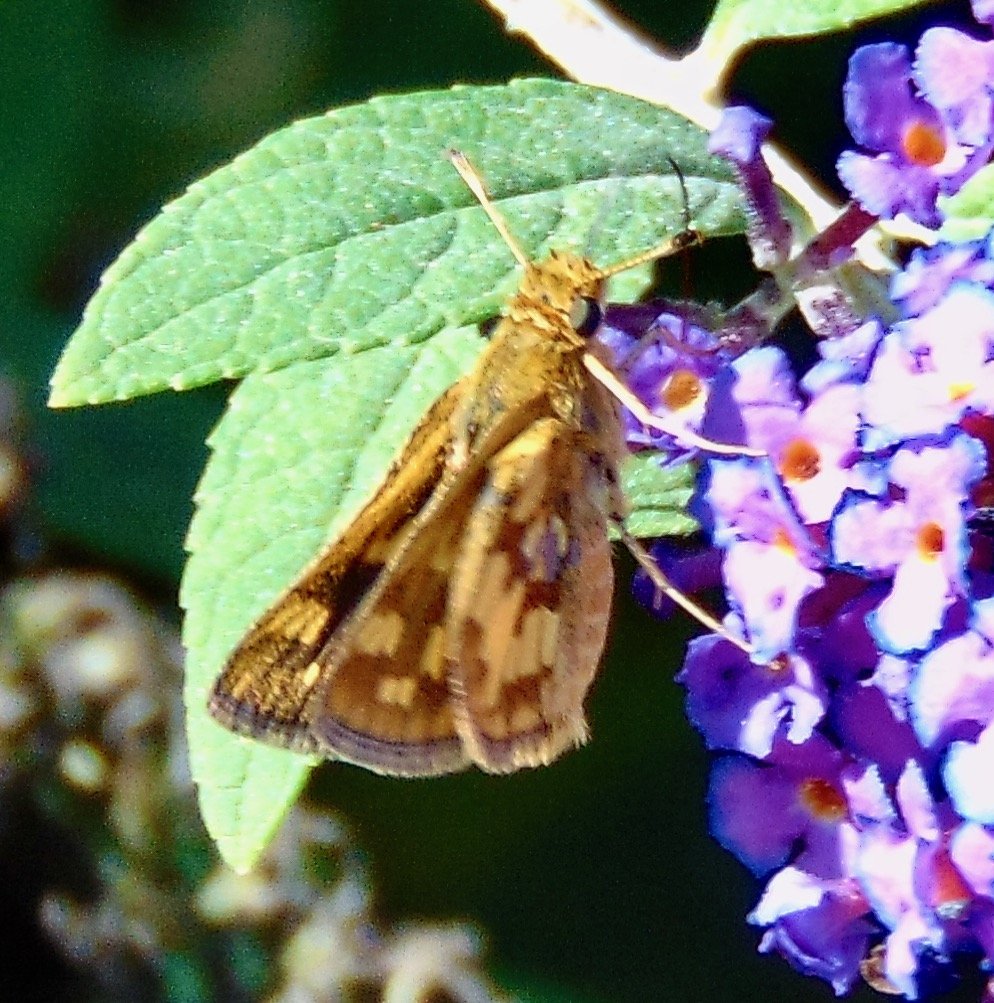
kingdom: Animalia
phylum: Arthropoda
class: Insecta
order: Lepidoptera
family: Hesperiidae
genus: Polites
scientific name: Polites coras
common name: Peck's Skipper
